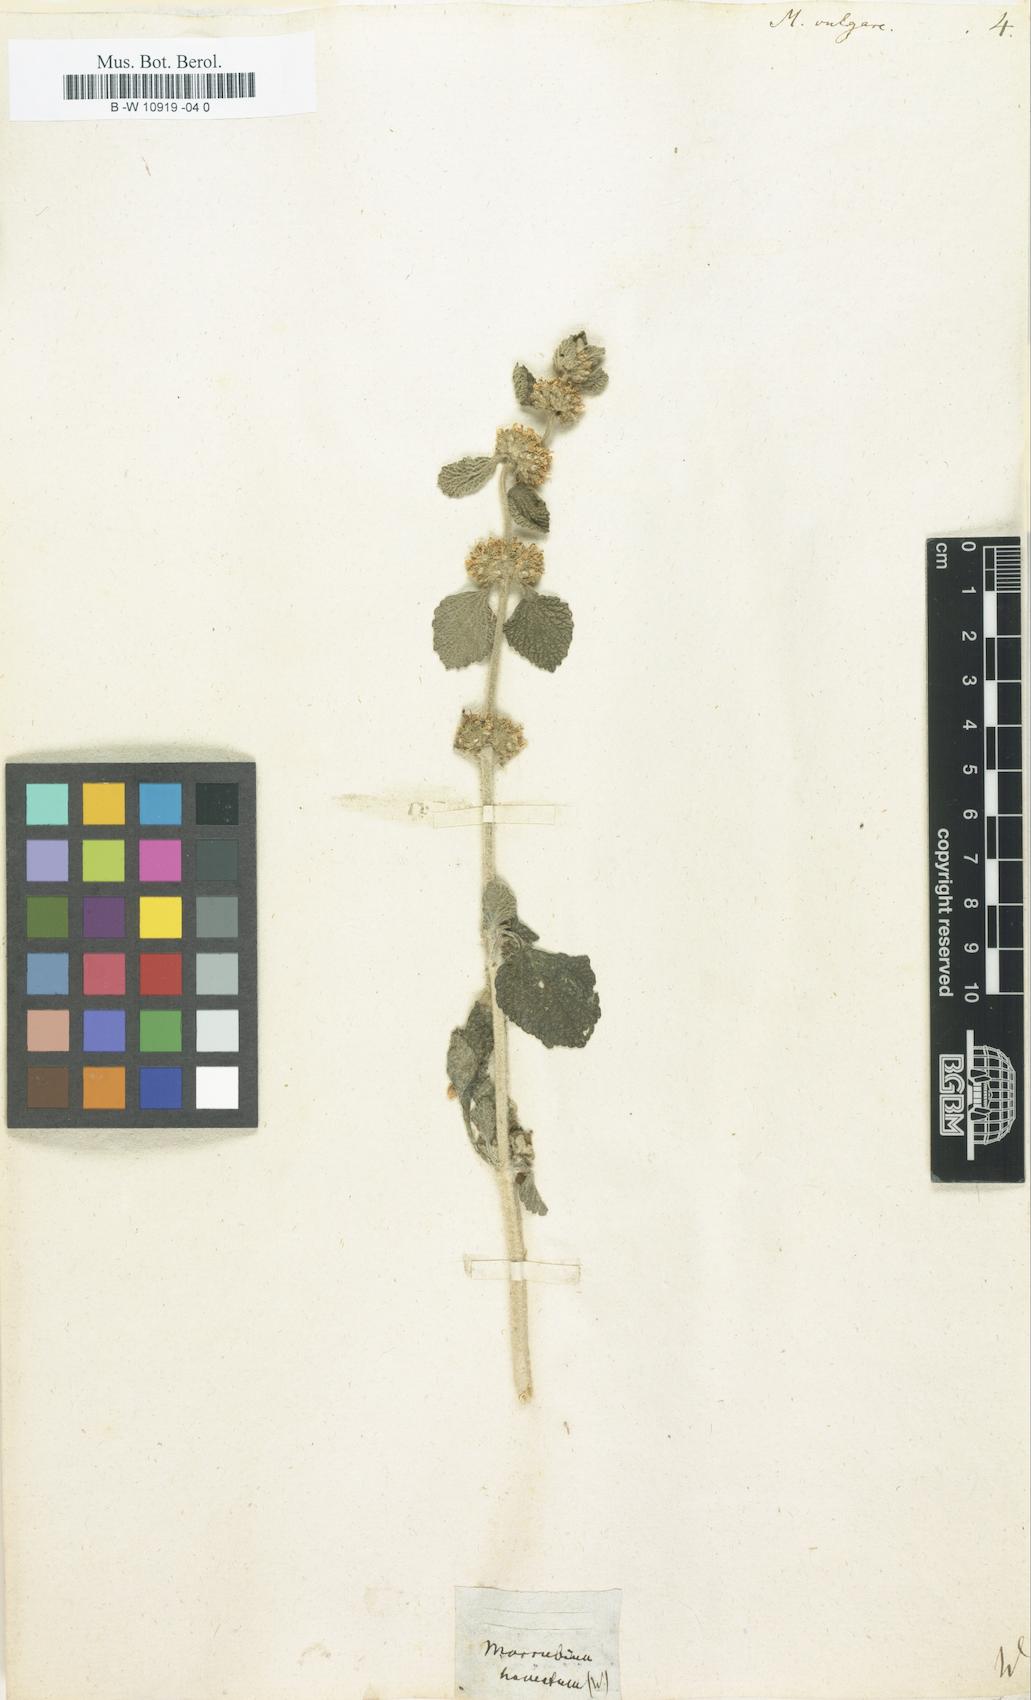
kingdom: Plantae
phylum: Tracheophyta
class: Magnoliopsida
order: Lamiales
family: Lamiaceae
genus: Marrubium
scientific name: Marrubium vulgare
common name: Horehound
